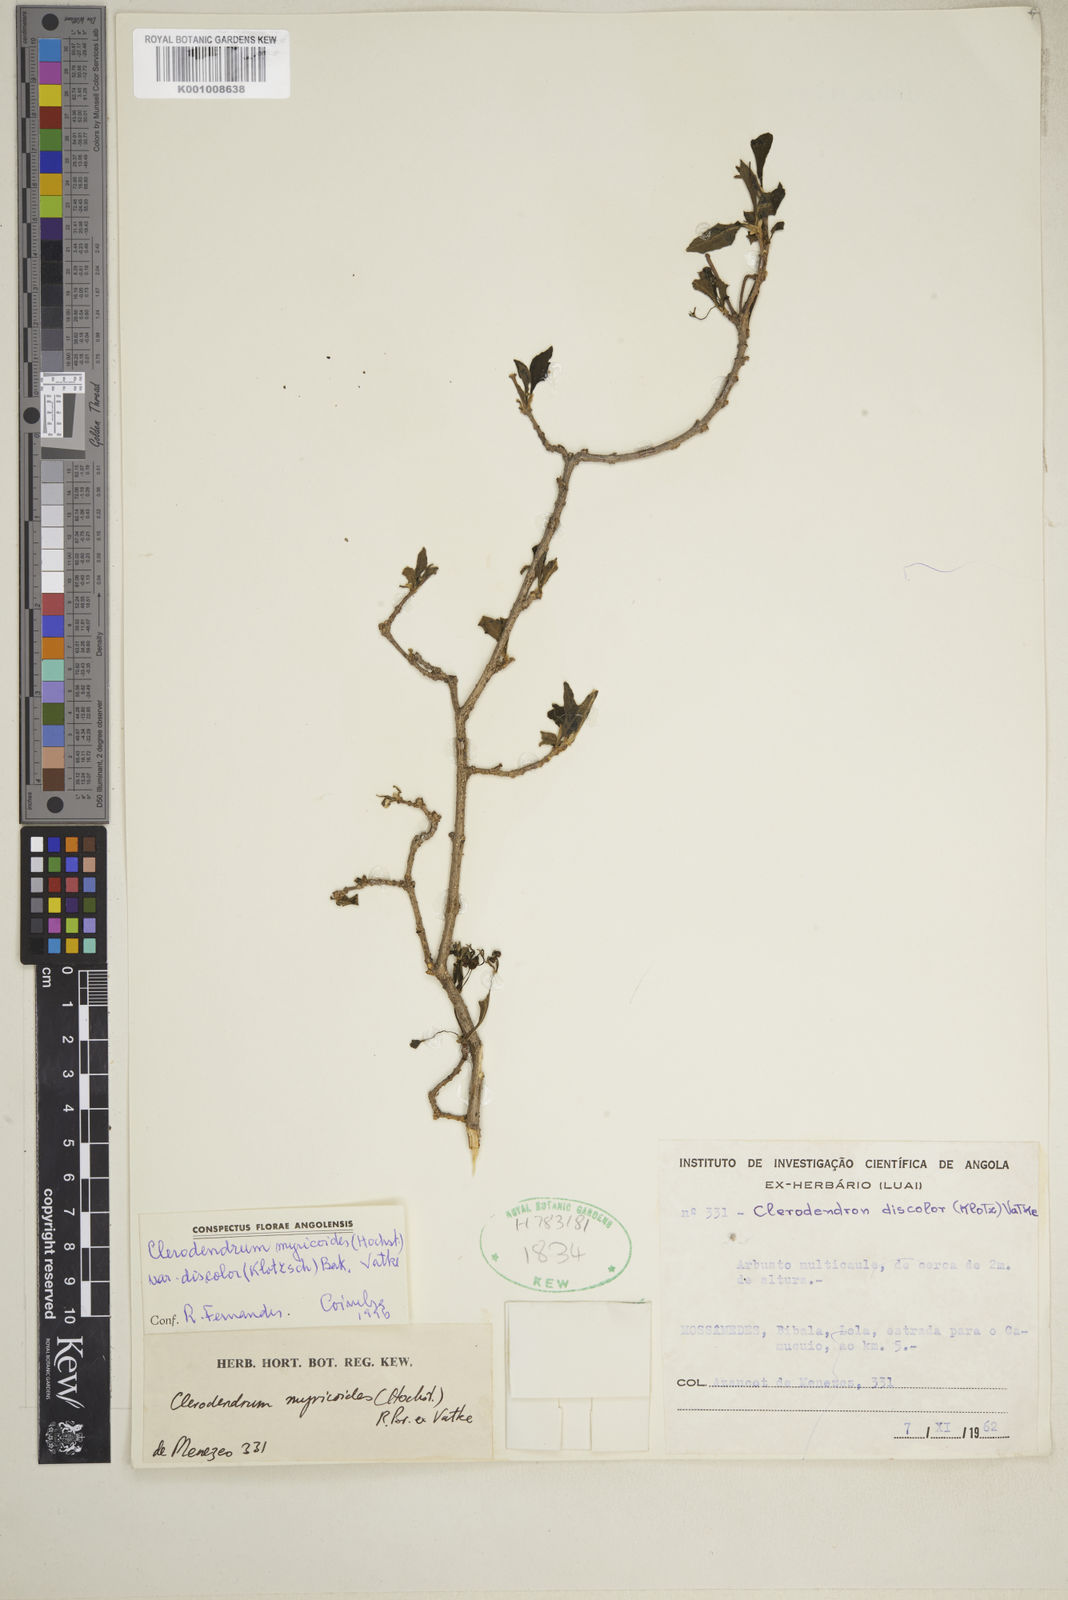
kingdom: Plantae
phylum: Tracheophyta
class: Magnoliopsida
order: Lamiales
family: Lamiaceae
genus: Rotheca
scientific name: Rotheca myricoides
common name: Cats-whiskers
